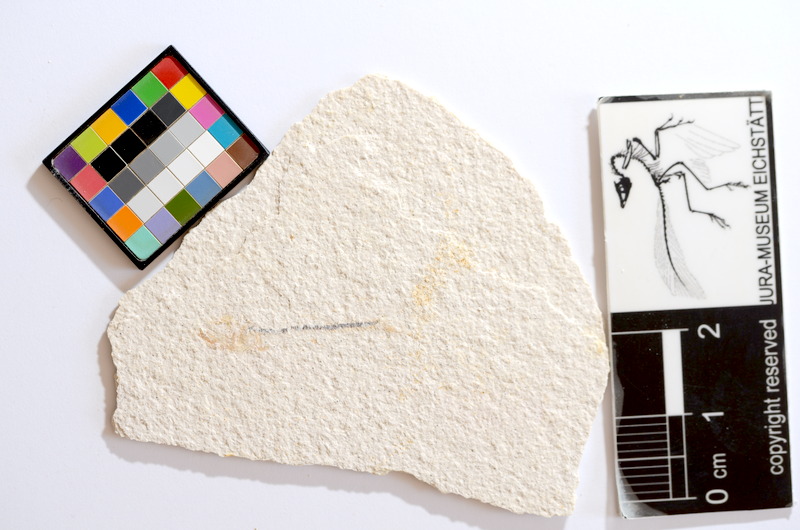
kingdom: Animalia
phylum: Chordata
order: Salmoniformes
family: Orthogonikleithridae
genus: Orthogonikleithrus
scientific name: Orthogonikleithrus hoelli
